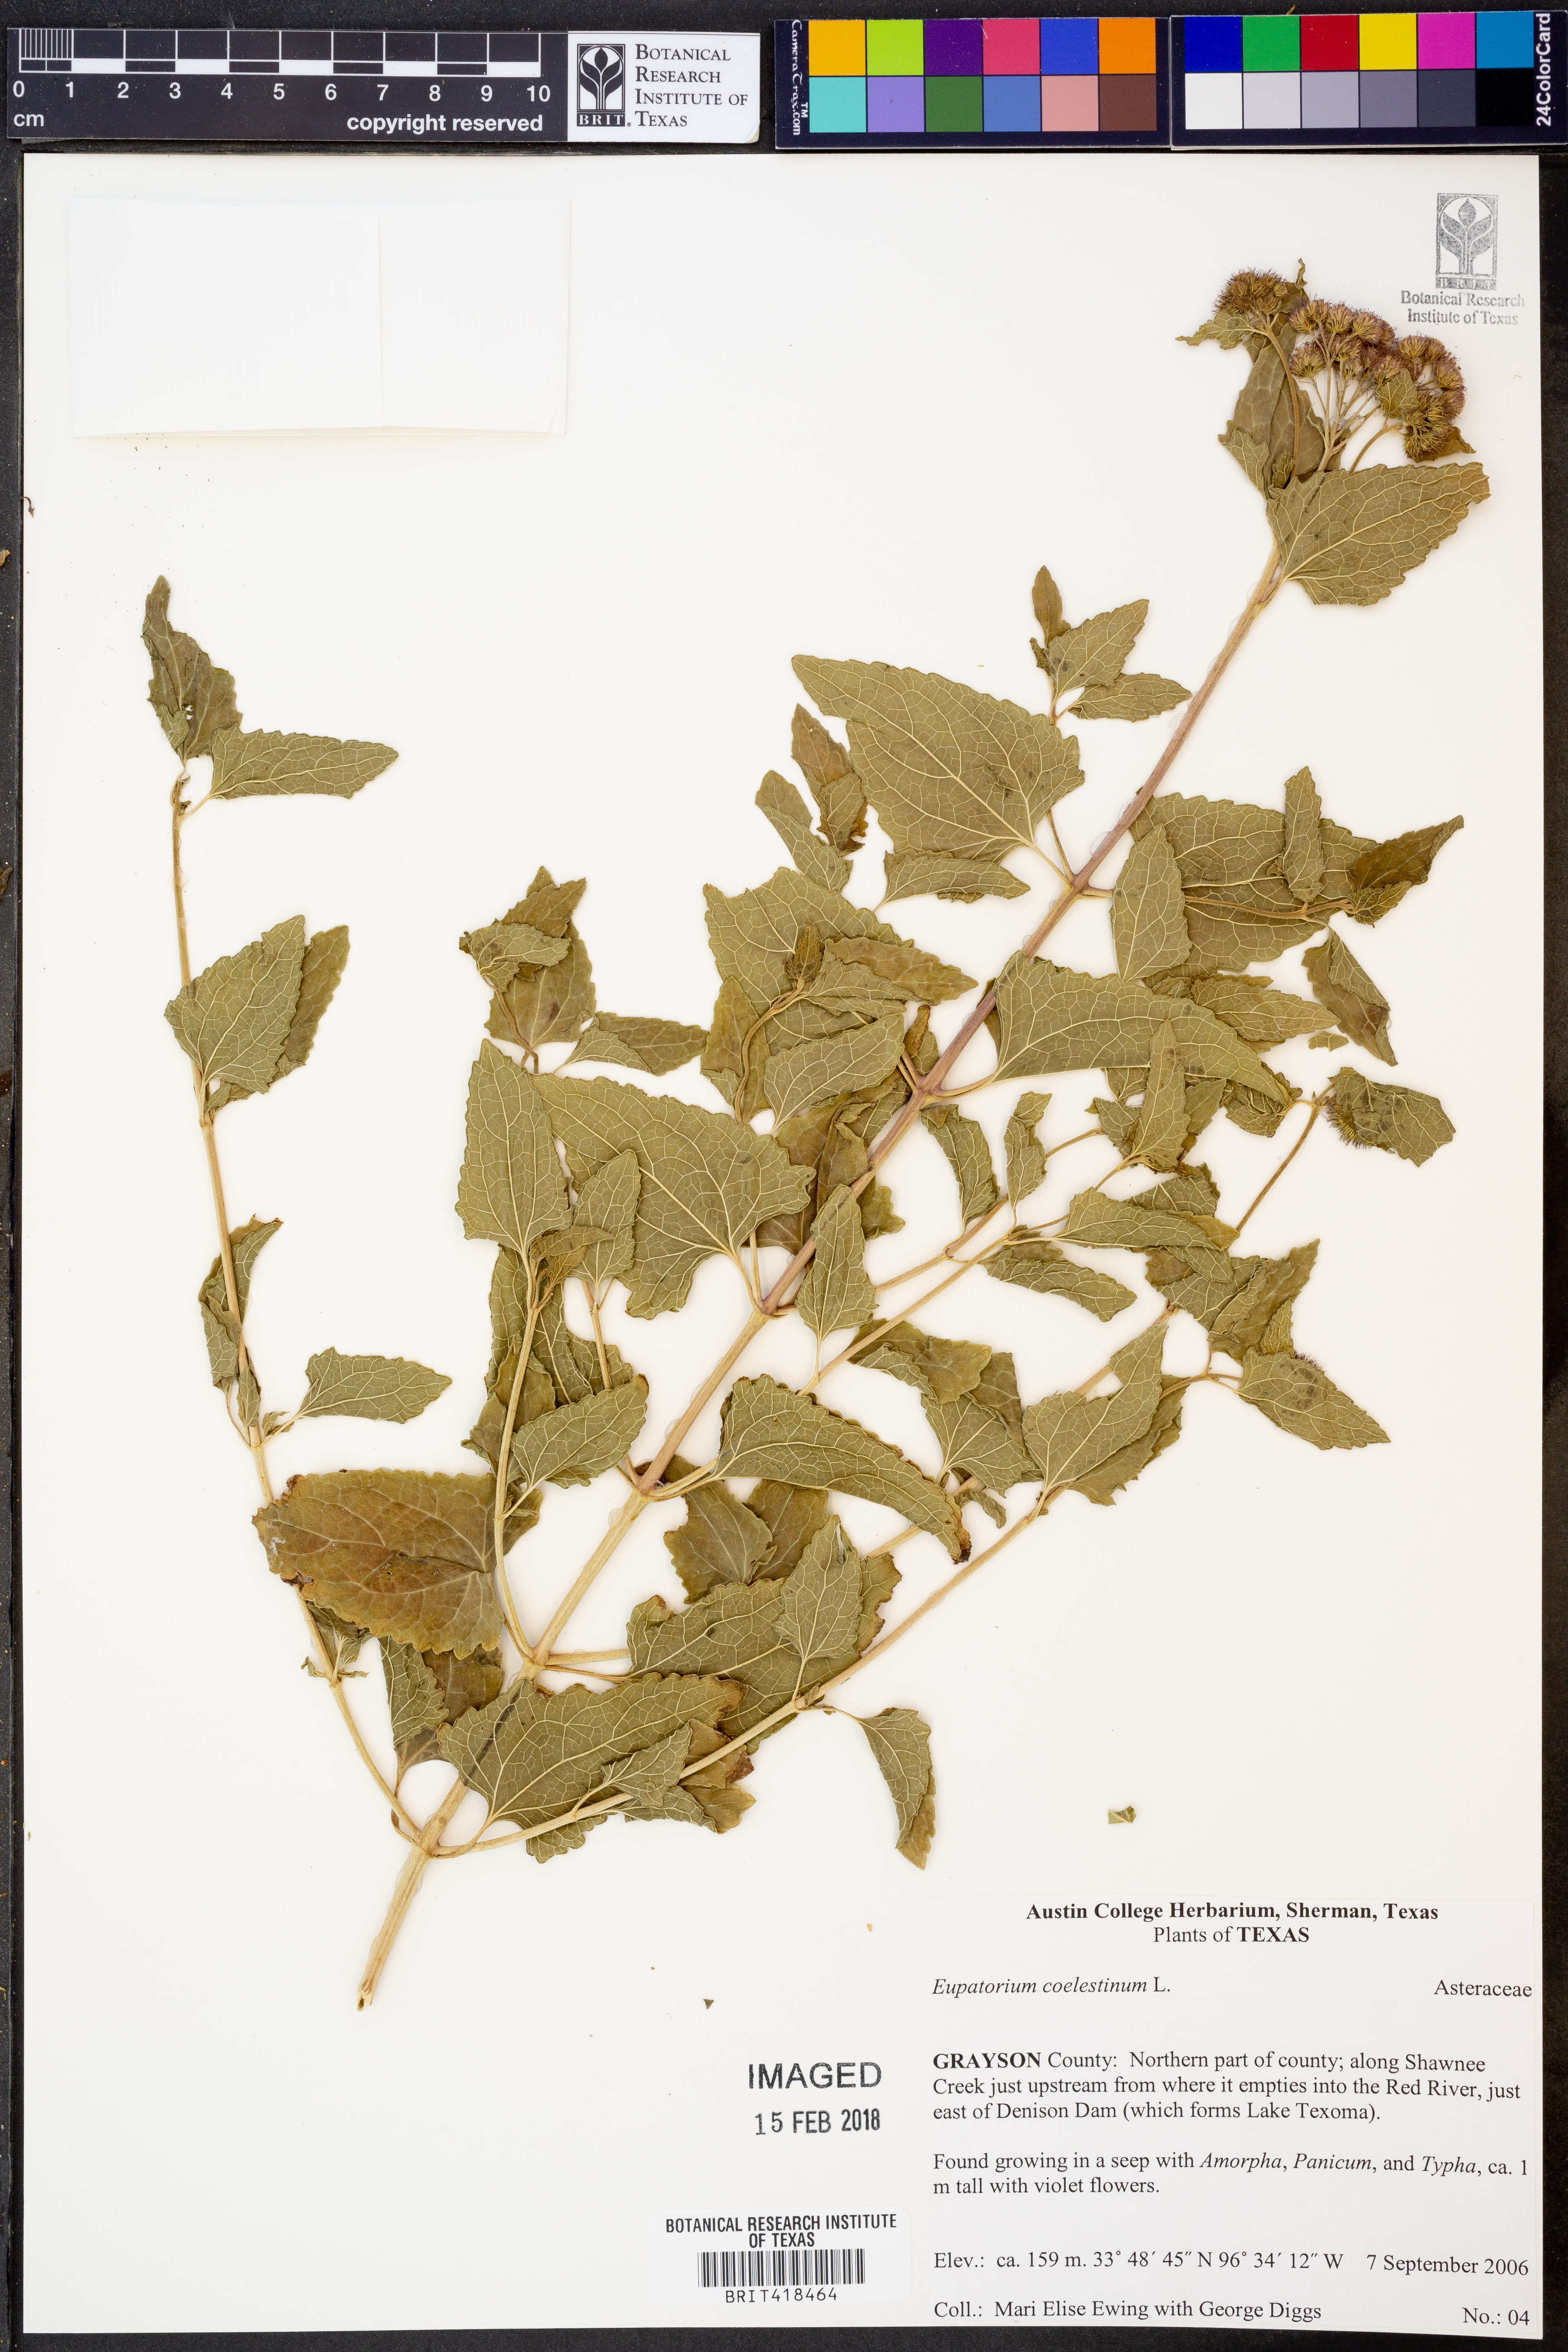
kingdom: Plantae
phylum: Tracheophyta
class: Magnoliopsida
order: Asterales
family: Asteraceae
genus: Conoclinium
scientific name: Conoclinium coelestinum
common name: Blue mistflower
